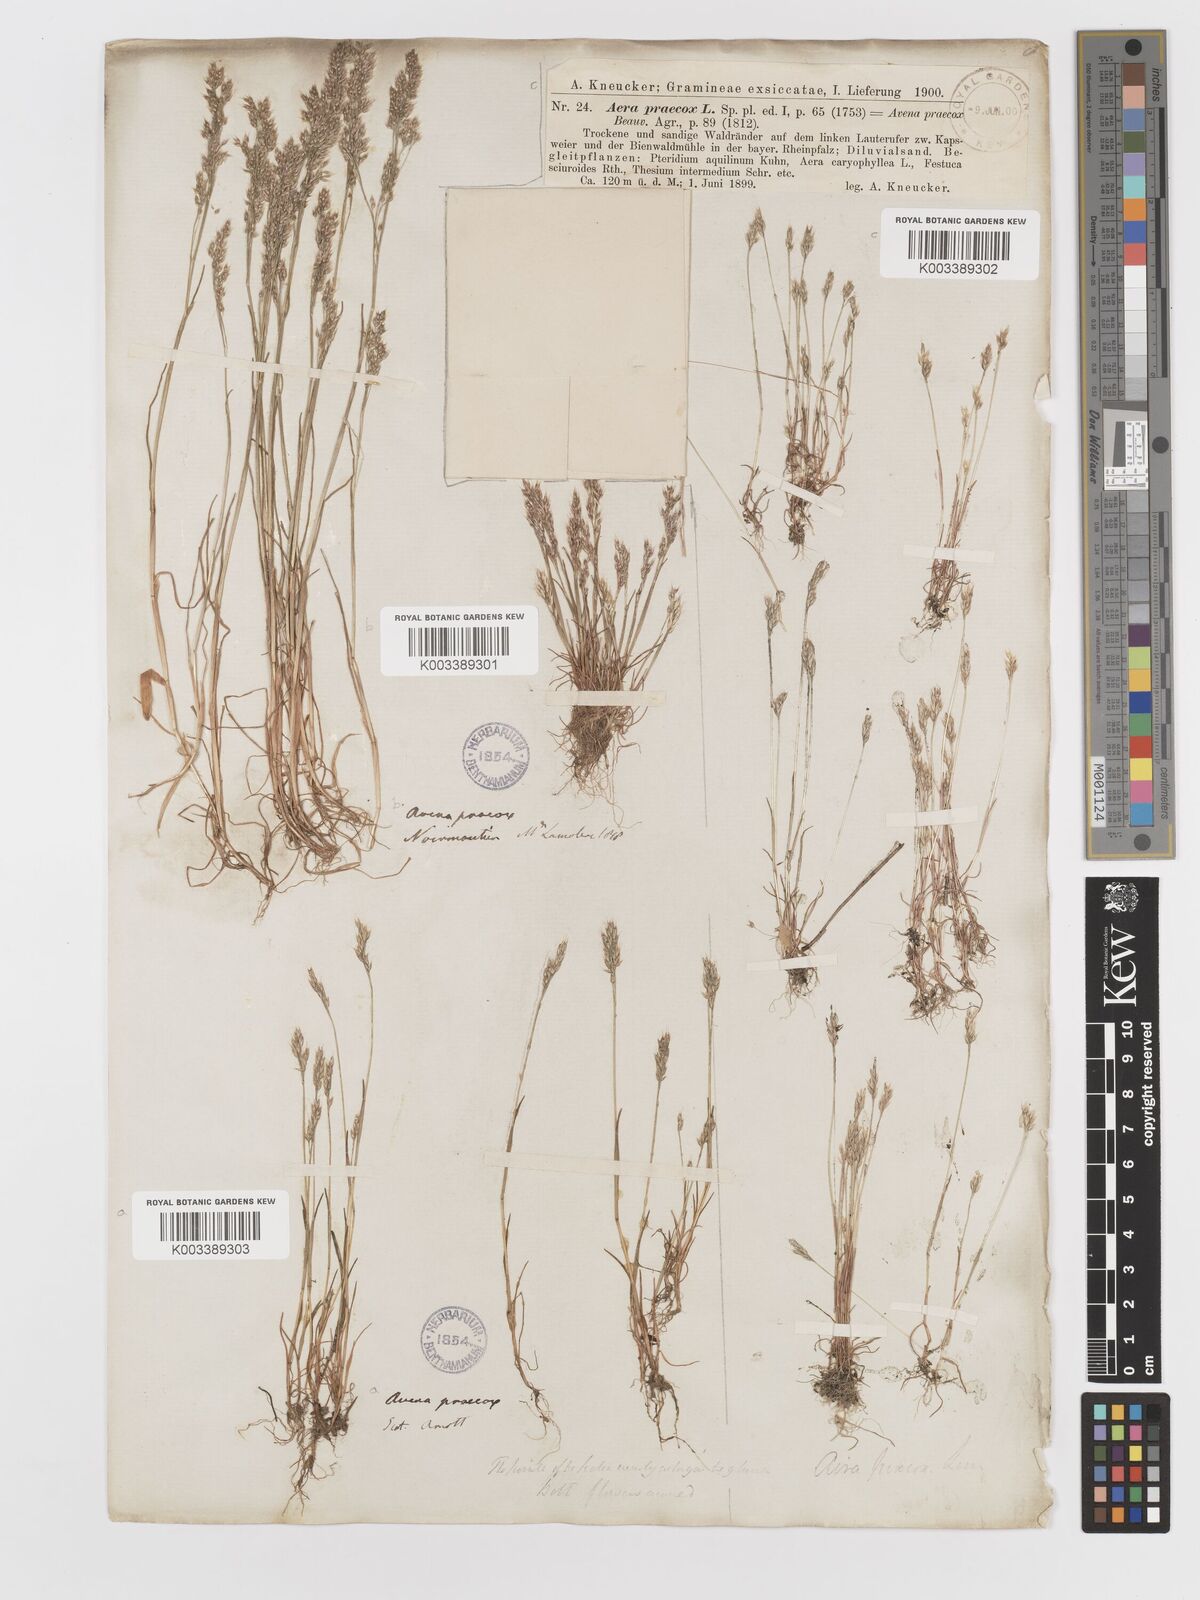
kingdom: Plantae
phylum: Tracheophyta
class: Liliopsida
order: Poales
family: Poaceae
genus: Aira
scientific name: Aira praecox
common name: Early hair-grass
